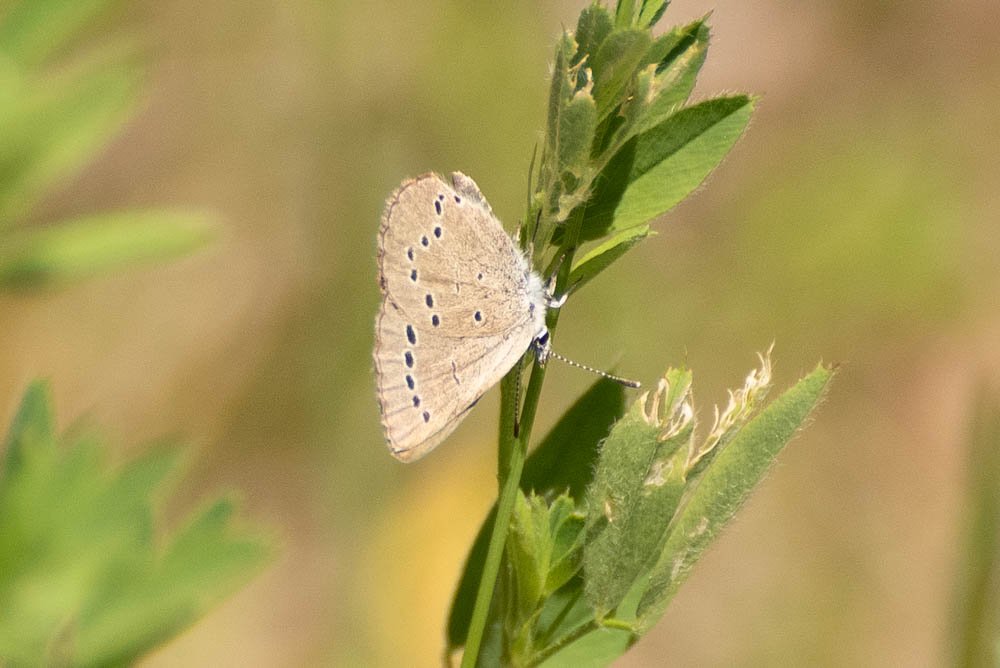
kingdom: Animalia
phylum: Arthropoda
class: Insecta
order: Lepidoptera
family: Lycaenidae
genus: Glaucopsyche
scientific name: Glaucopsyche lygdamus
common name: Silvery Blue
